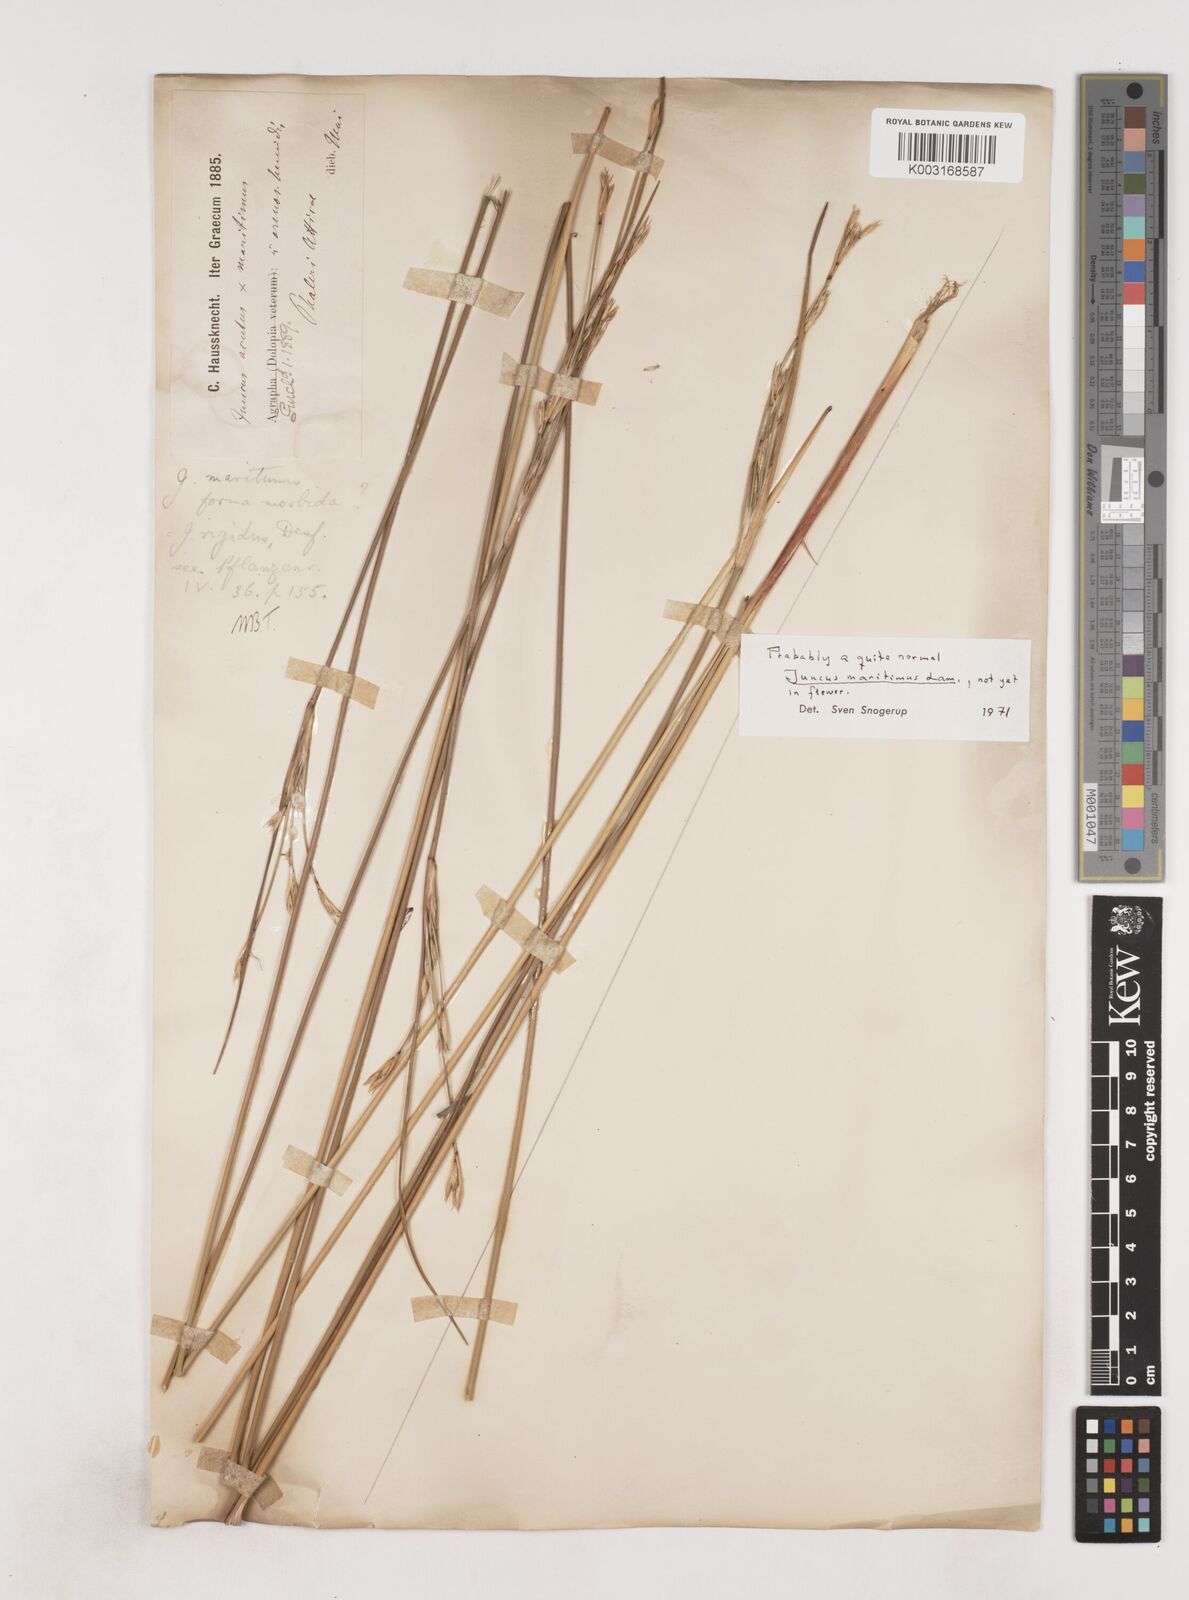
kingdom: Plantae
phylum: Tracheophyta
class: Liliopsida
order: Poales
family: Juncaceae
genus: Juncus
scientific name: Juncus maritimus
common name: Sea rush
